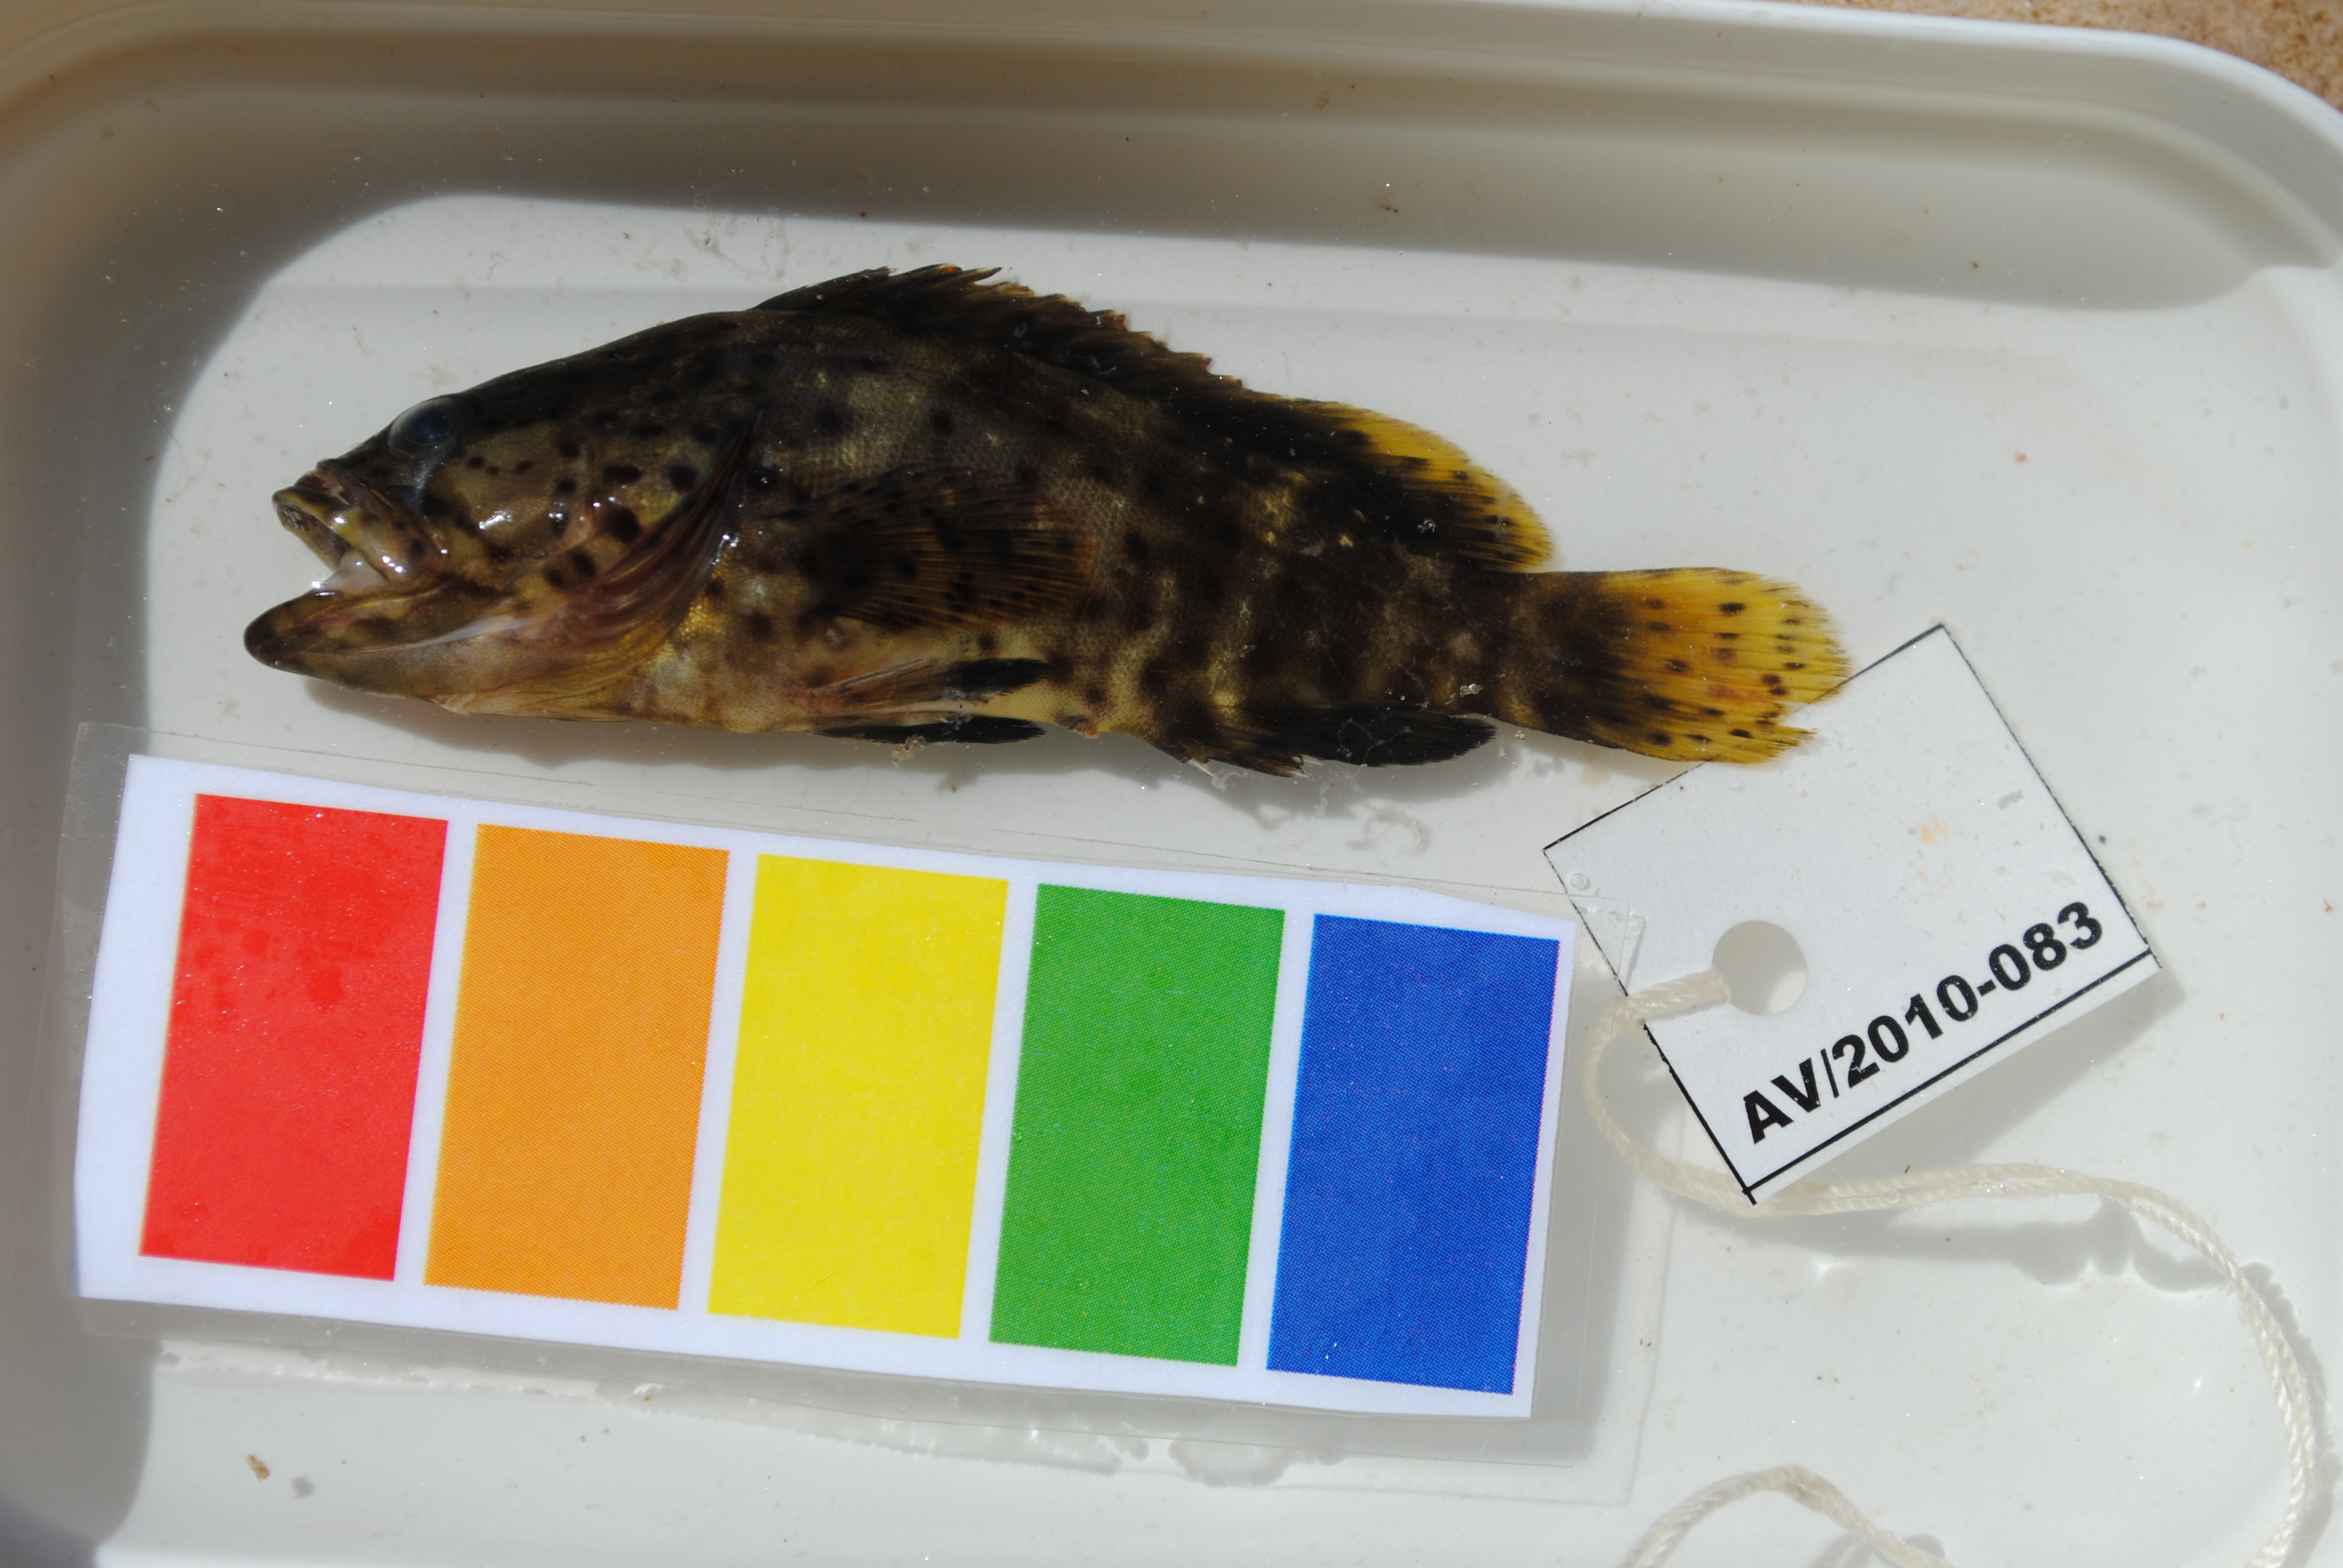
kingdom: Animalia
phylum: Chordata
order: Perciformes
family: Serranidae
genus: Epinephelus
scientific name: Epinephelus malabaricus
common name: Malabar grouper
